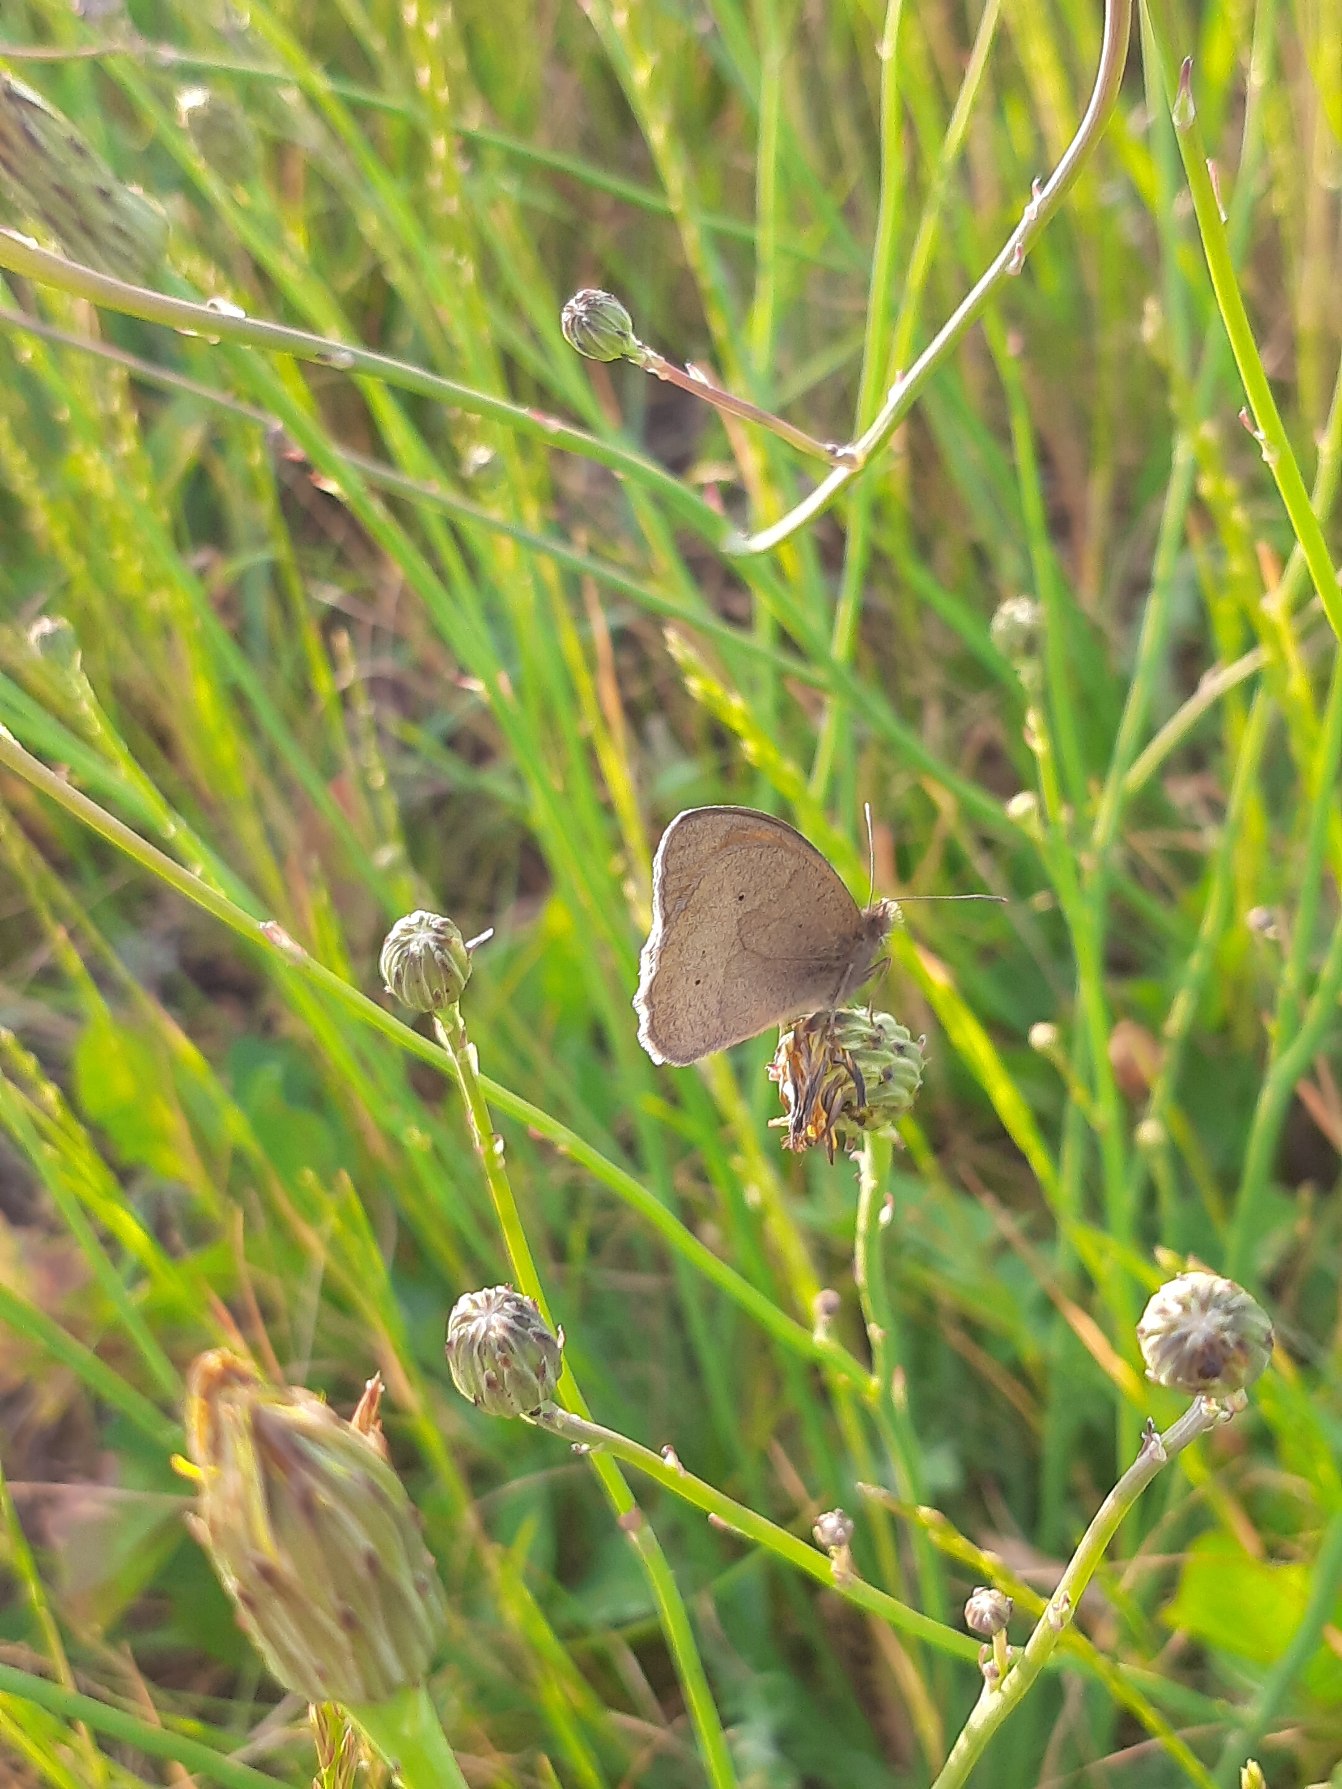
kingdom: Animalia
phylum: Arthropoda
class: Insecta
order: Lepidoptera
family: Nymphalidae
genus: Maniola
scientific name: Maniola jurtina
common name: Græsrandøje
